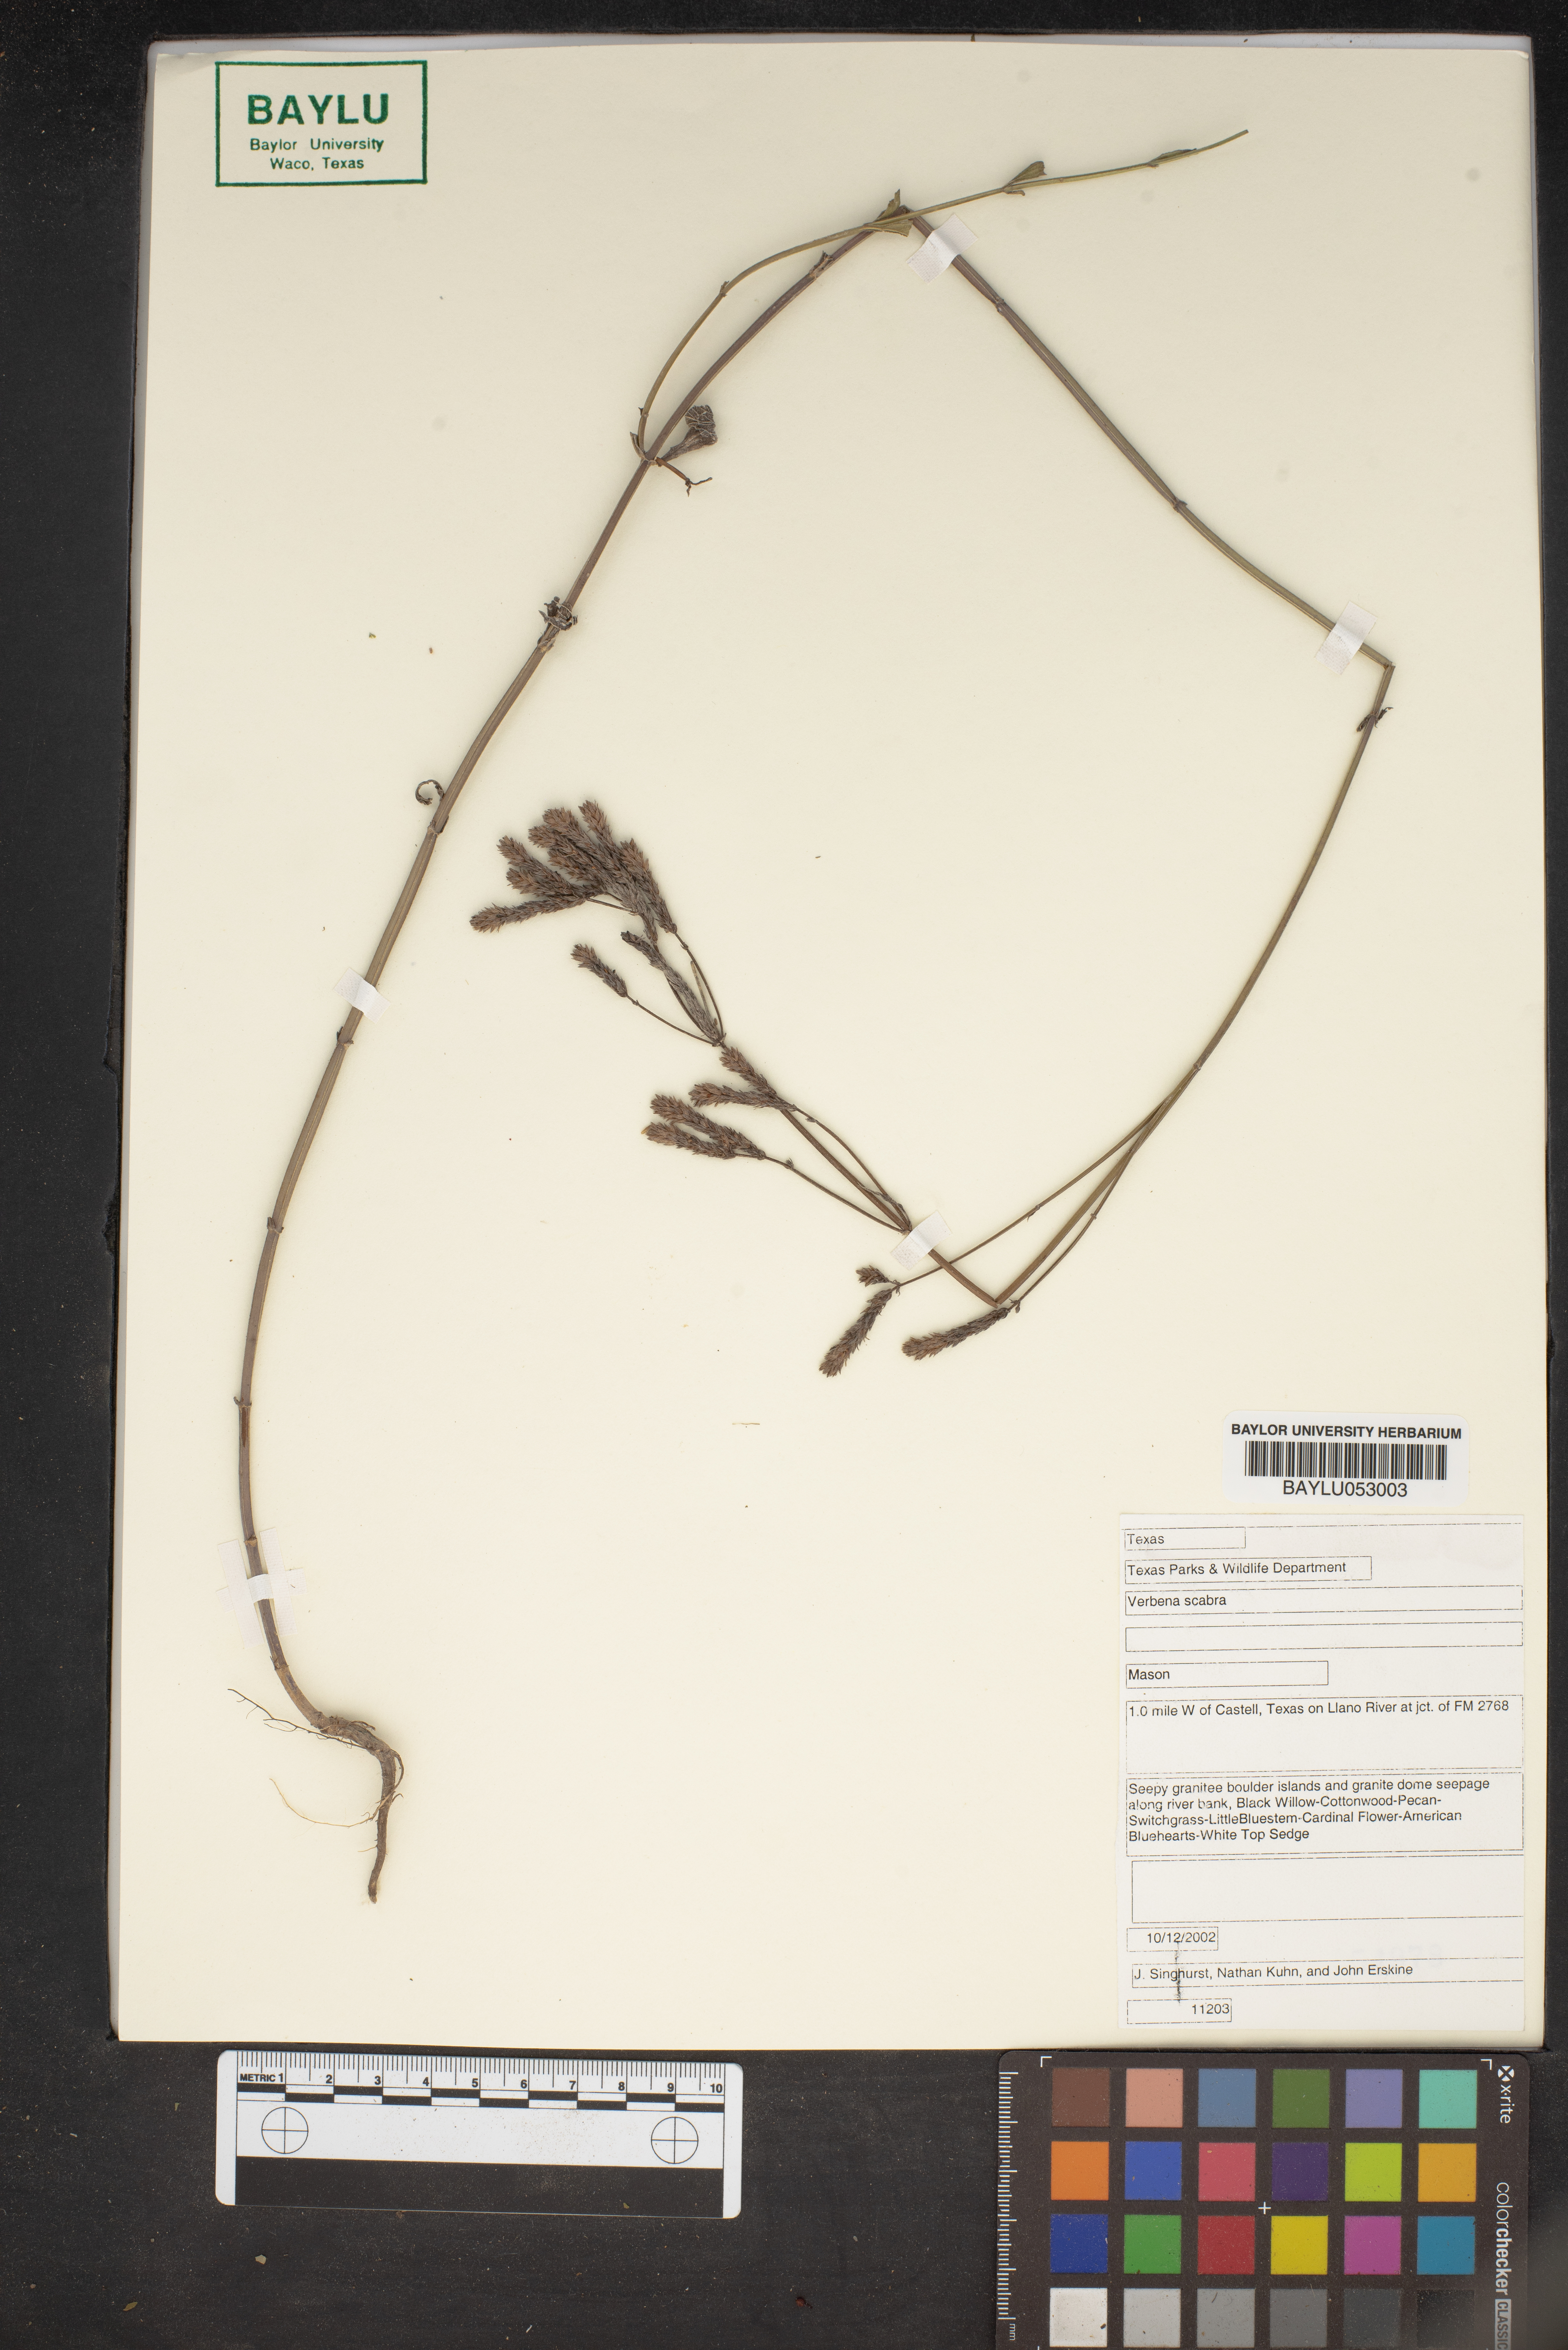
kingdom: Plantae
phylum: Tracheophyta
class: Magnoliopsida
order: Lamiales
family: Verbenaceae
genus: Verbena
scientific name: Verbena scabra
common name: Sandpaper vervain
